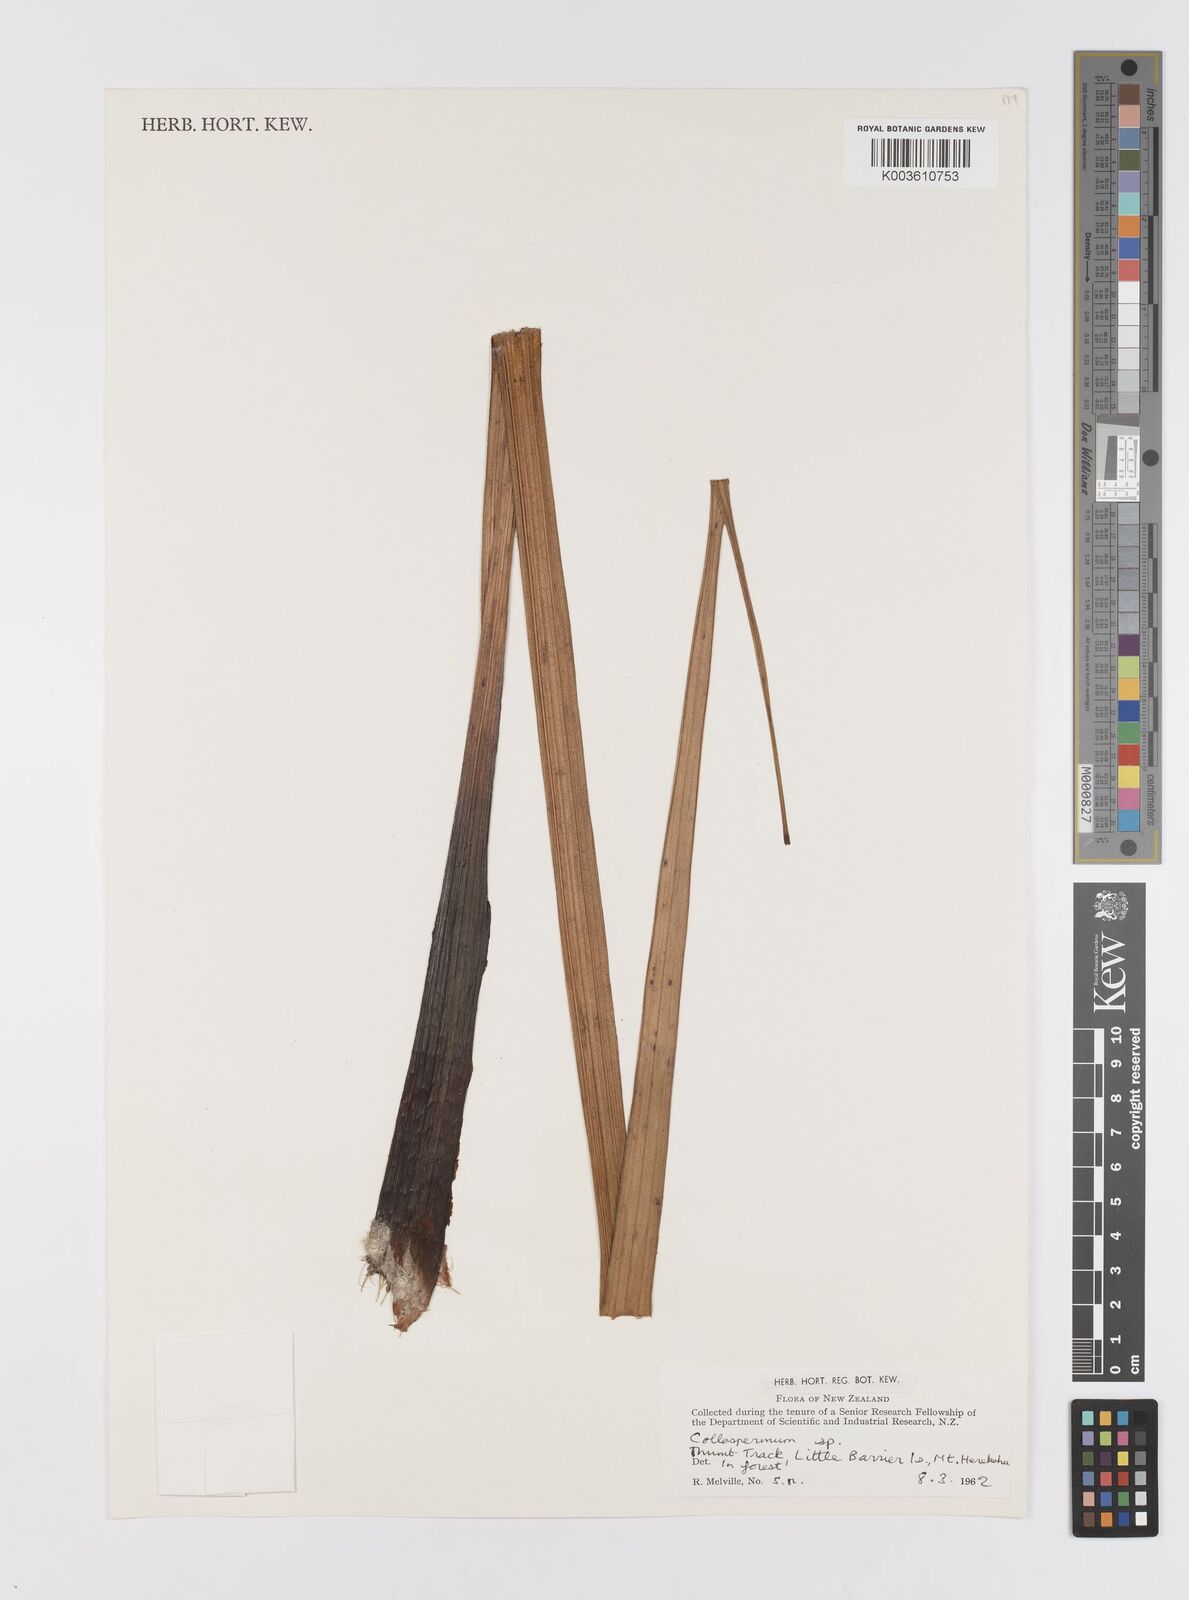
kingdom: Plantae
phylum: Tracheophyta
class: Liliopsida
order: Asparagales
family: Asteliaceae
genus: Astelia
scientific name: Astelia
